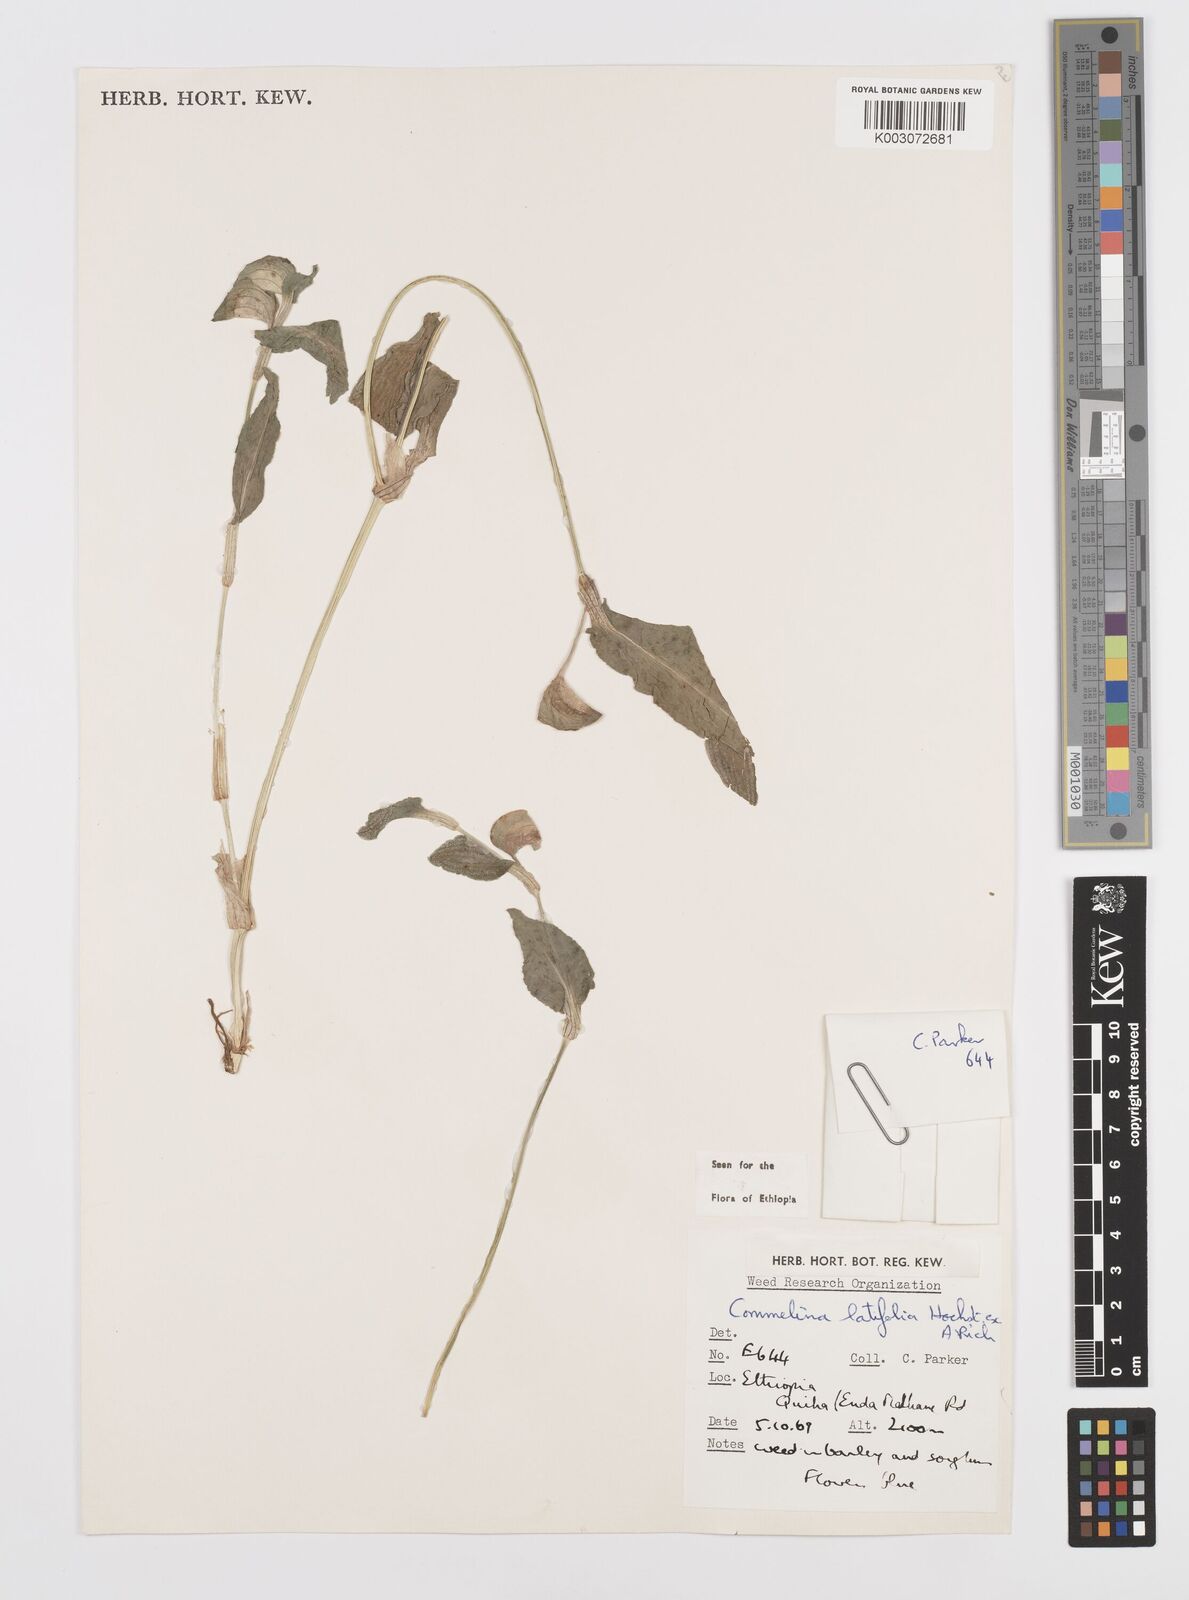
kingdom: Plantae
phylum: Tracheophyta
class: Liliopsida
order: Commelinales
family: Commelinaceae
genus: Commelina
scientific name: Commelina imberbis
